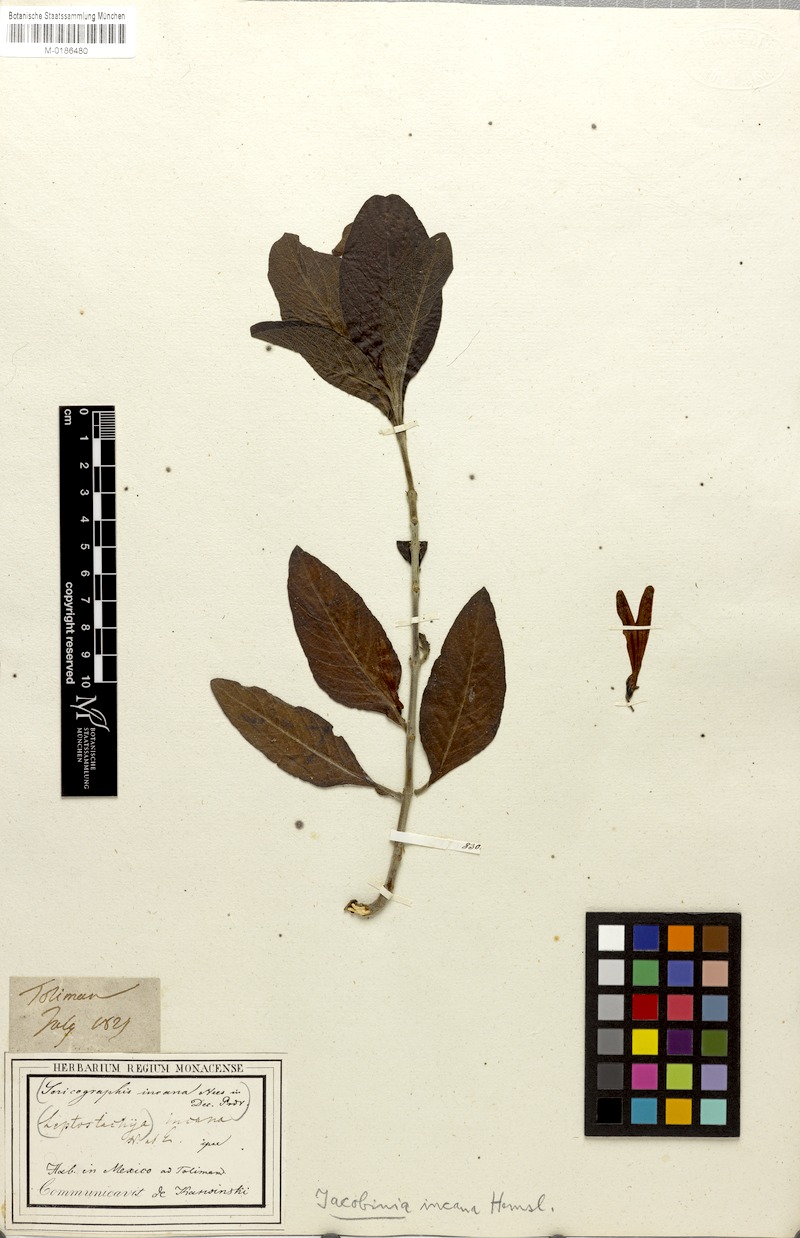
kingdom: Plantae
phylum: Tracheophyta
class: Magnoliopsida
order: Lamiales
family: Acanthaceae
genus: Justicia
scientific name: Justicia leonardii
